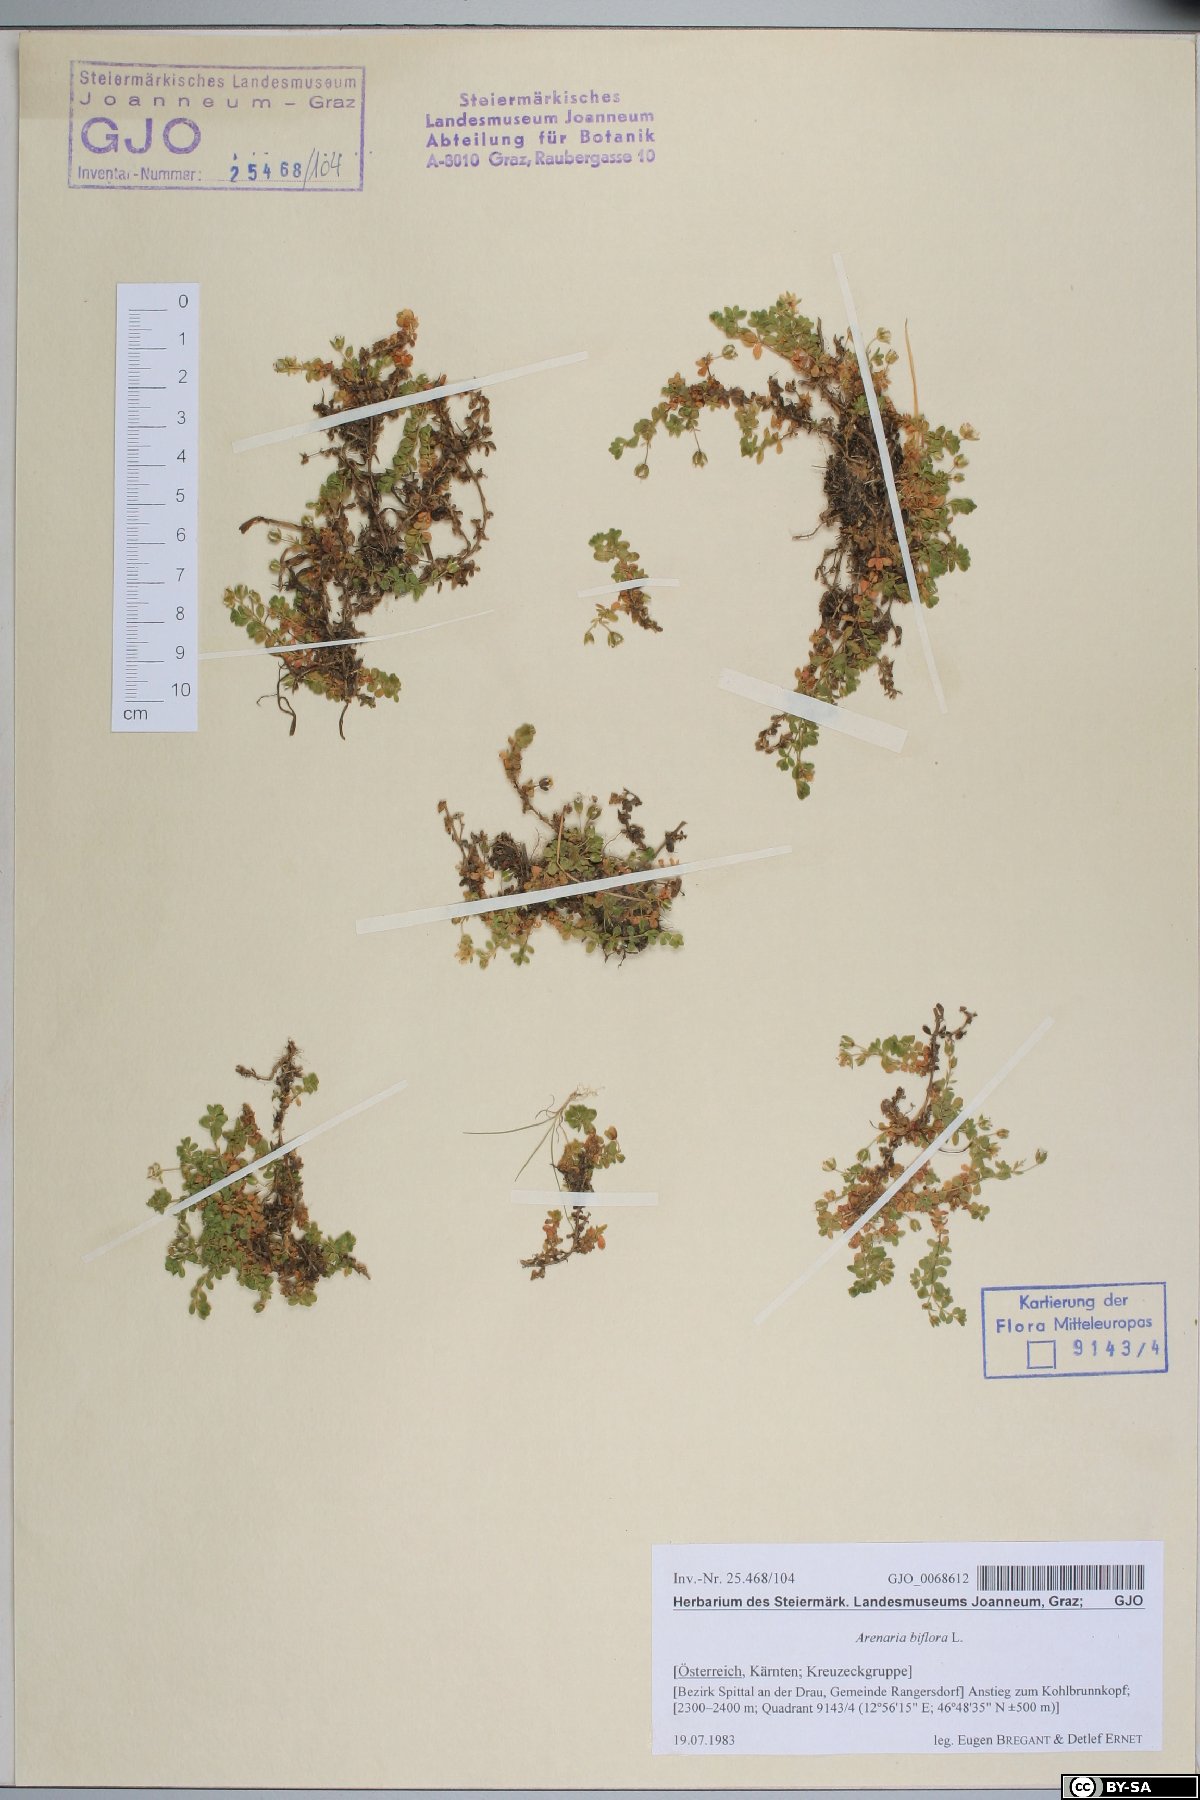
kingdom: Plantae
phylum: Tracheophyta
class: Magnoliopsida
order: Caryophyllales
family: Caryophyllaceae
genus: Arenaria
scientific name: Arenaria biflora
